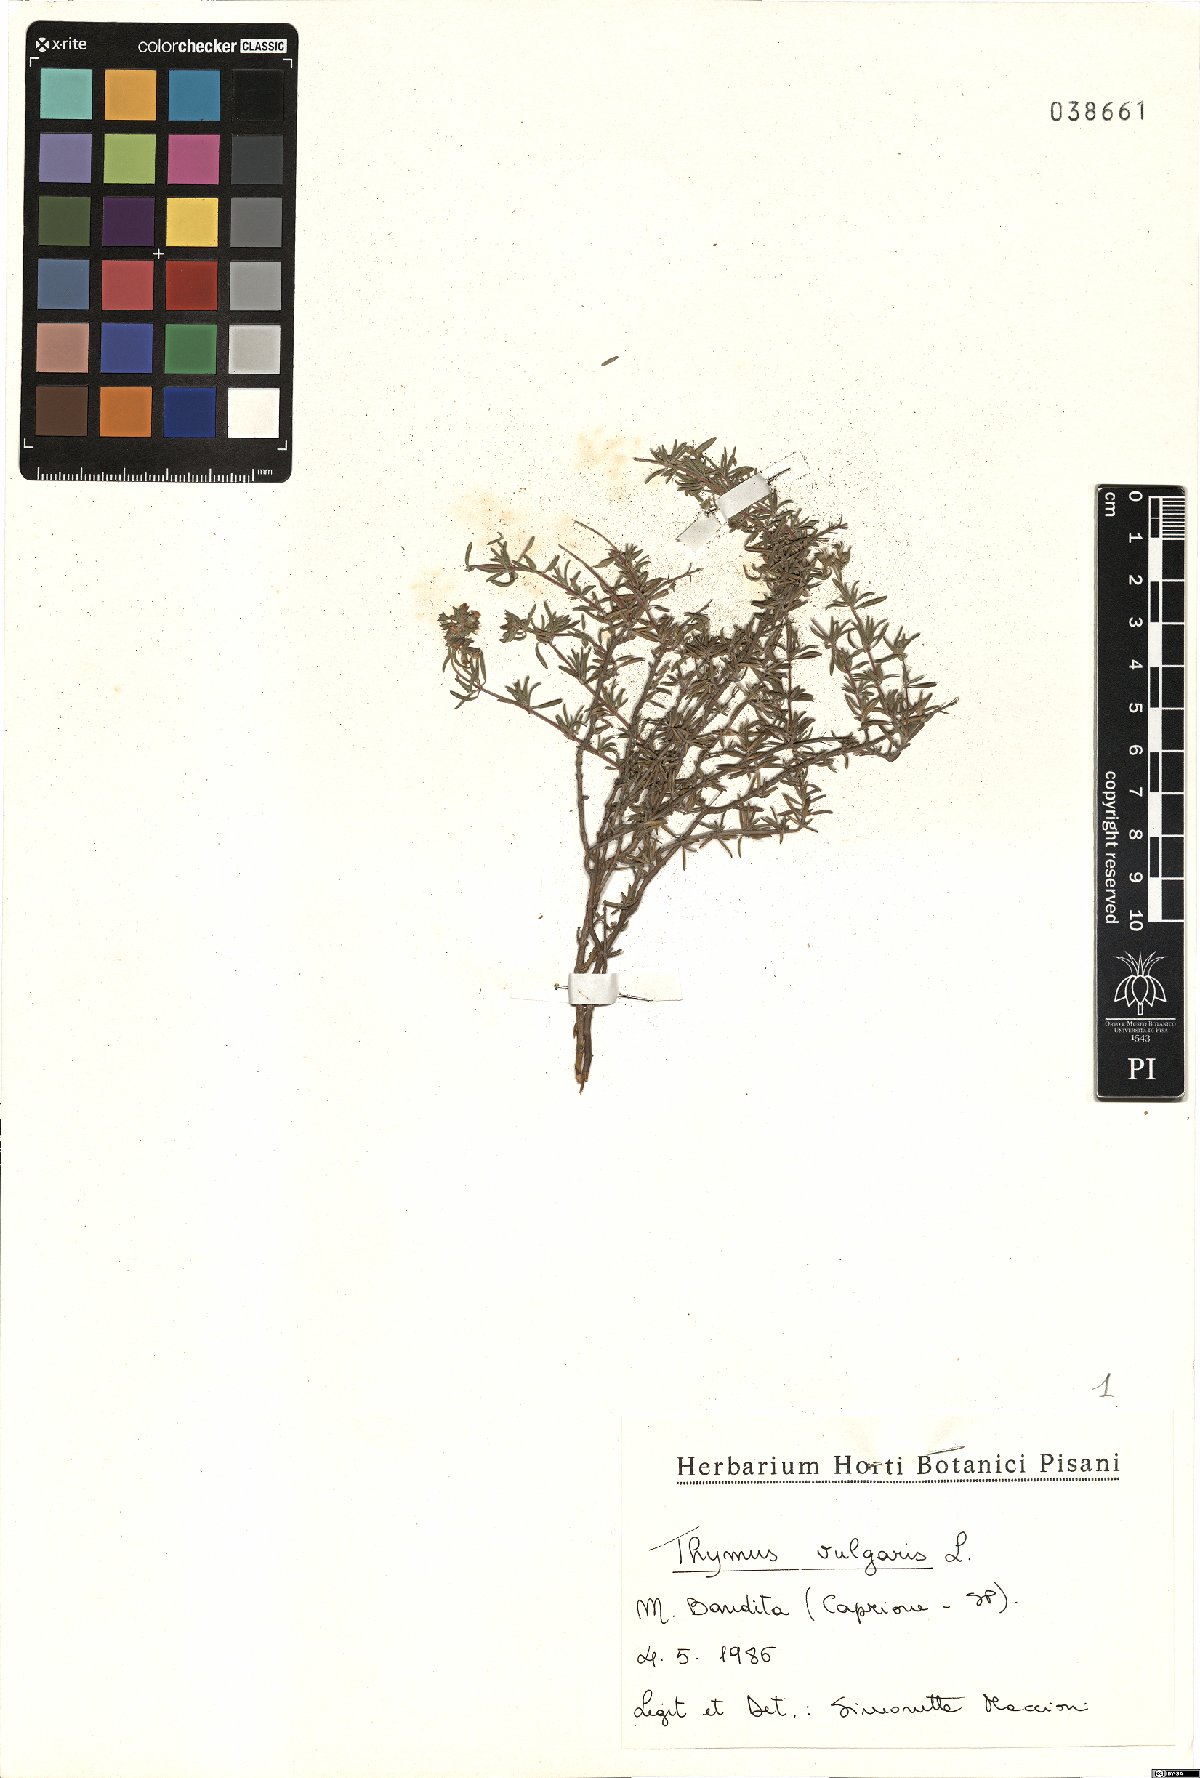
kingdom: Plantae
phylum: Tracheophyta
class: Magnoliopsida
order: Lamiales
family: Lamiaceae
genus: Thymus
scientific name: Thymus vulgaris
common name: Garden thyme
